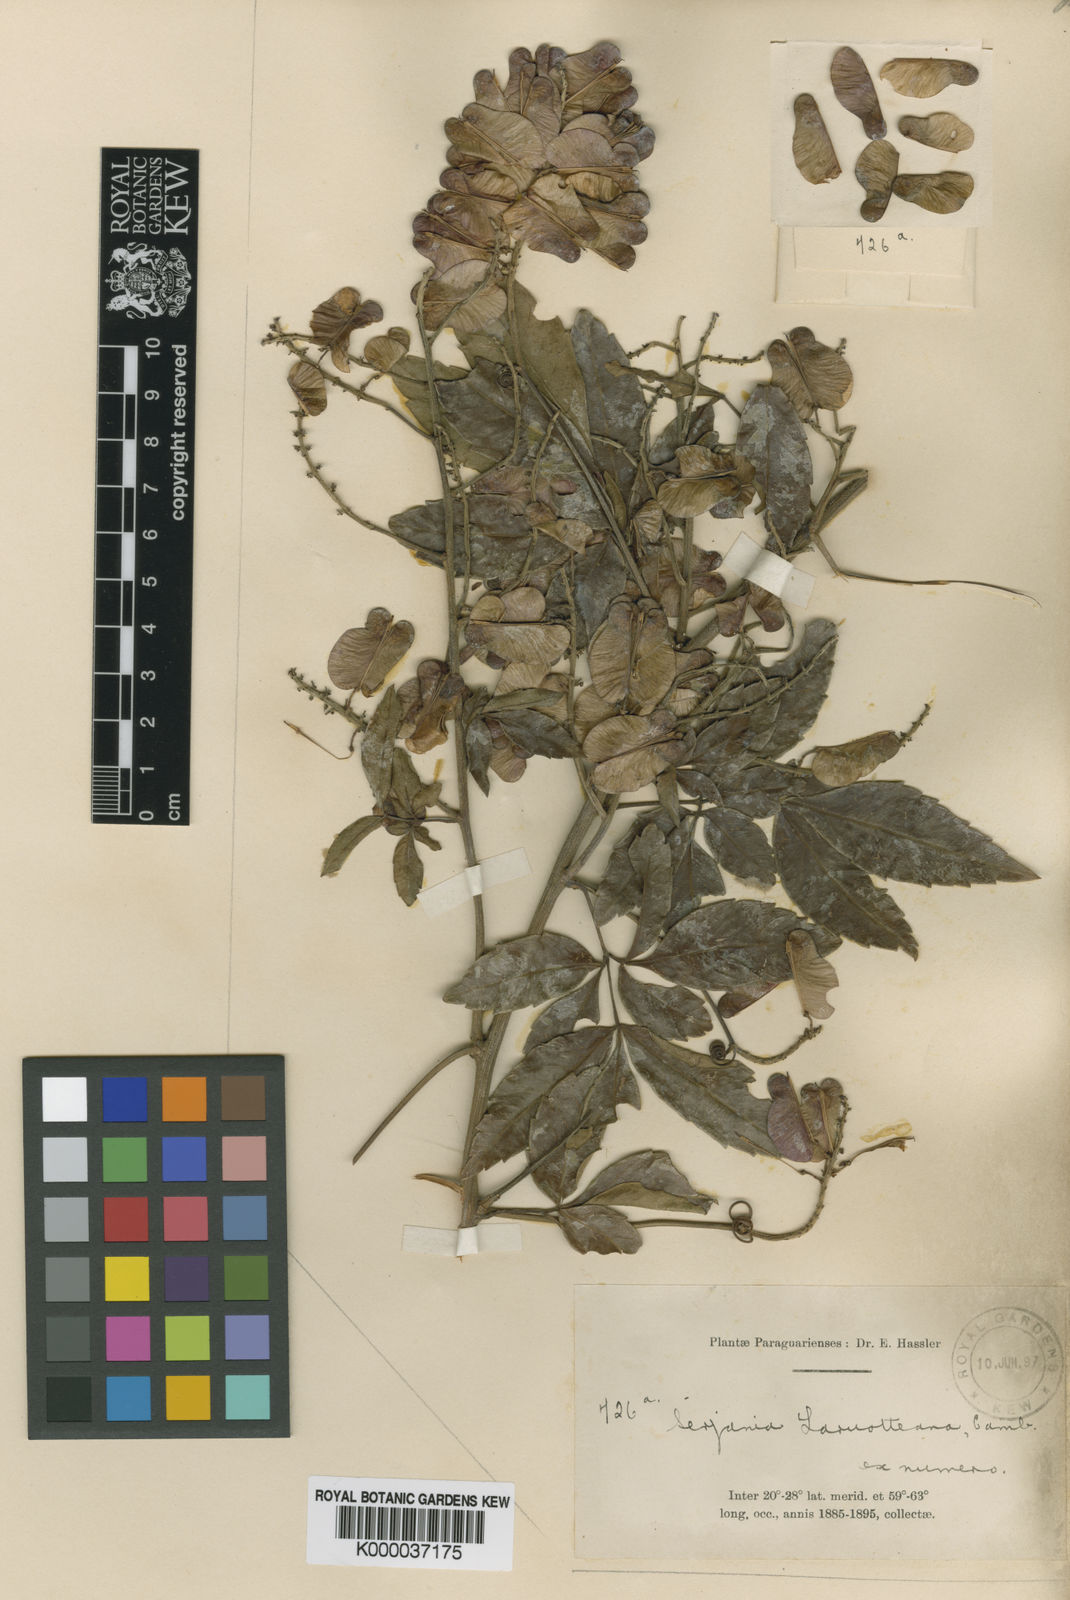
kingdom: Plantae
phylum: Tracheophyta
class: Magnoliopsida
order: Sapindales
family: Sapindaceae
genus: Serjania
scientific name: Serjania laruotteana
